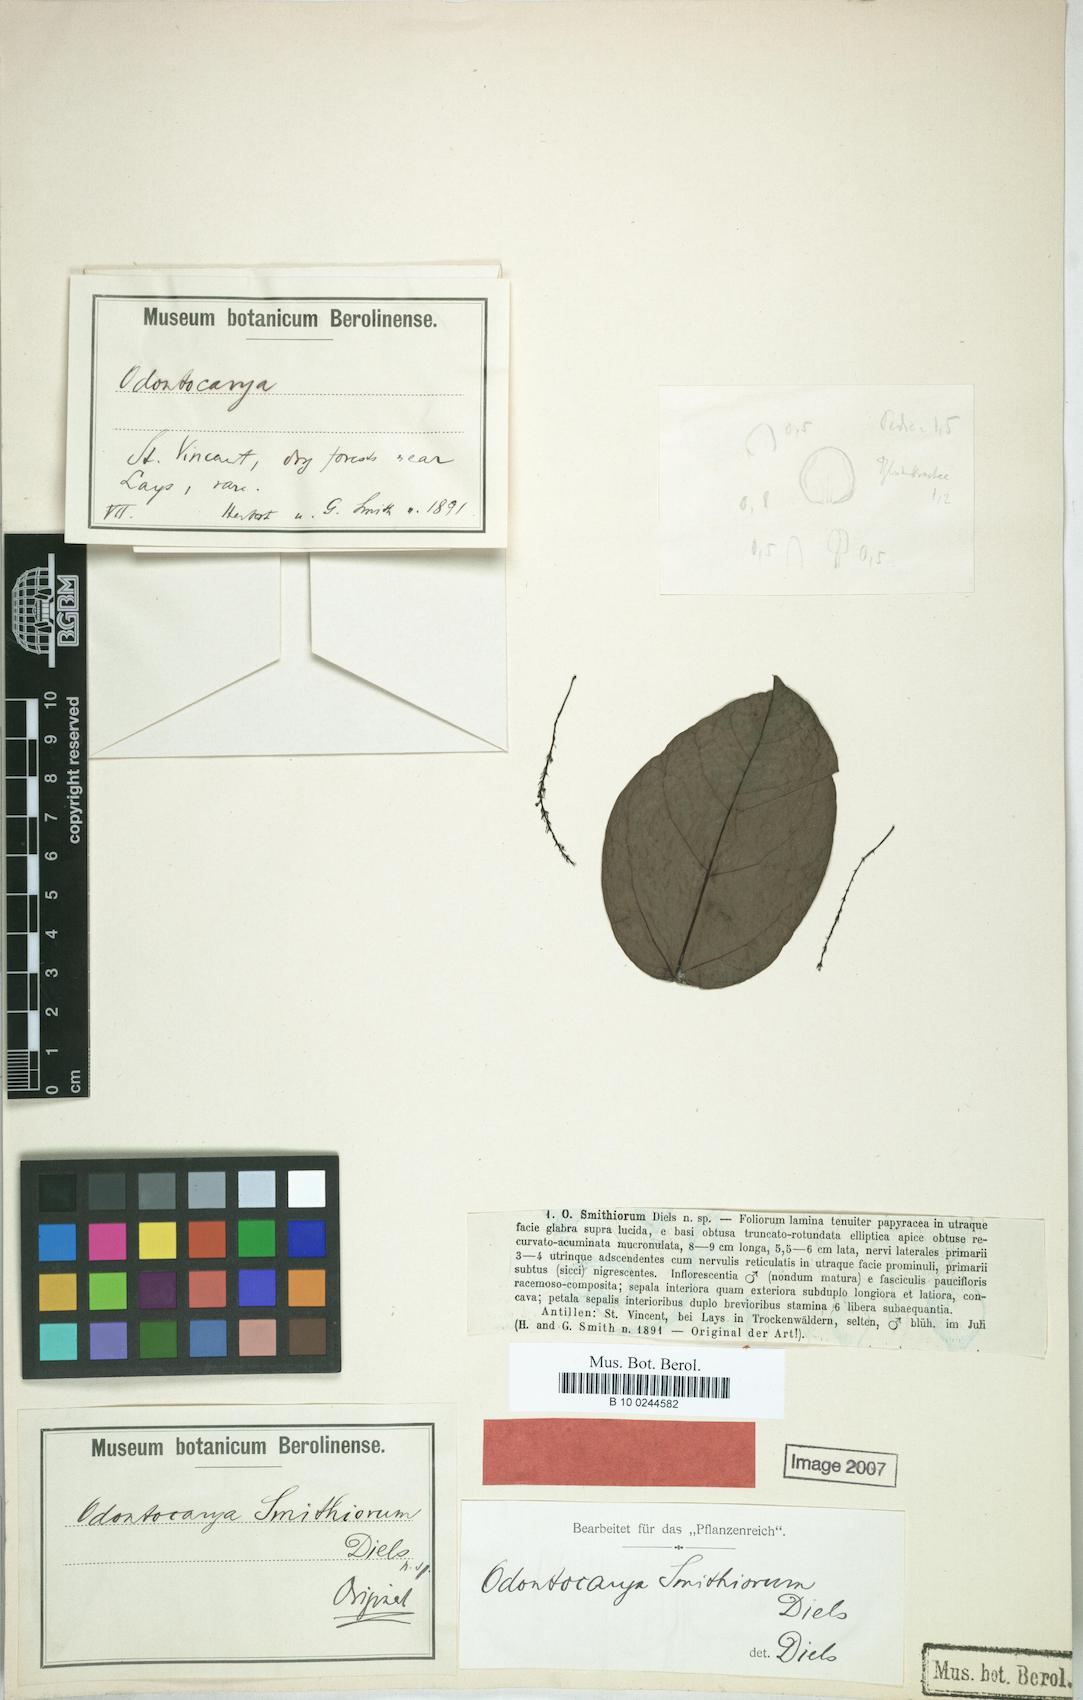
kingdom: Plantae
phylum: Tracheophyta
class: Magnoliopsida
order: Ranunculales
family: Menispermaceae
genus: Odontocarya
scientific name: Odontocarya smithiorum
